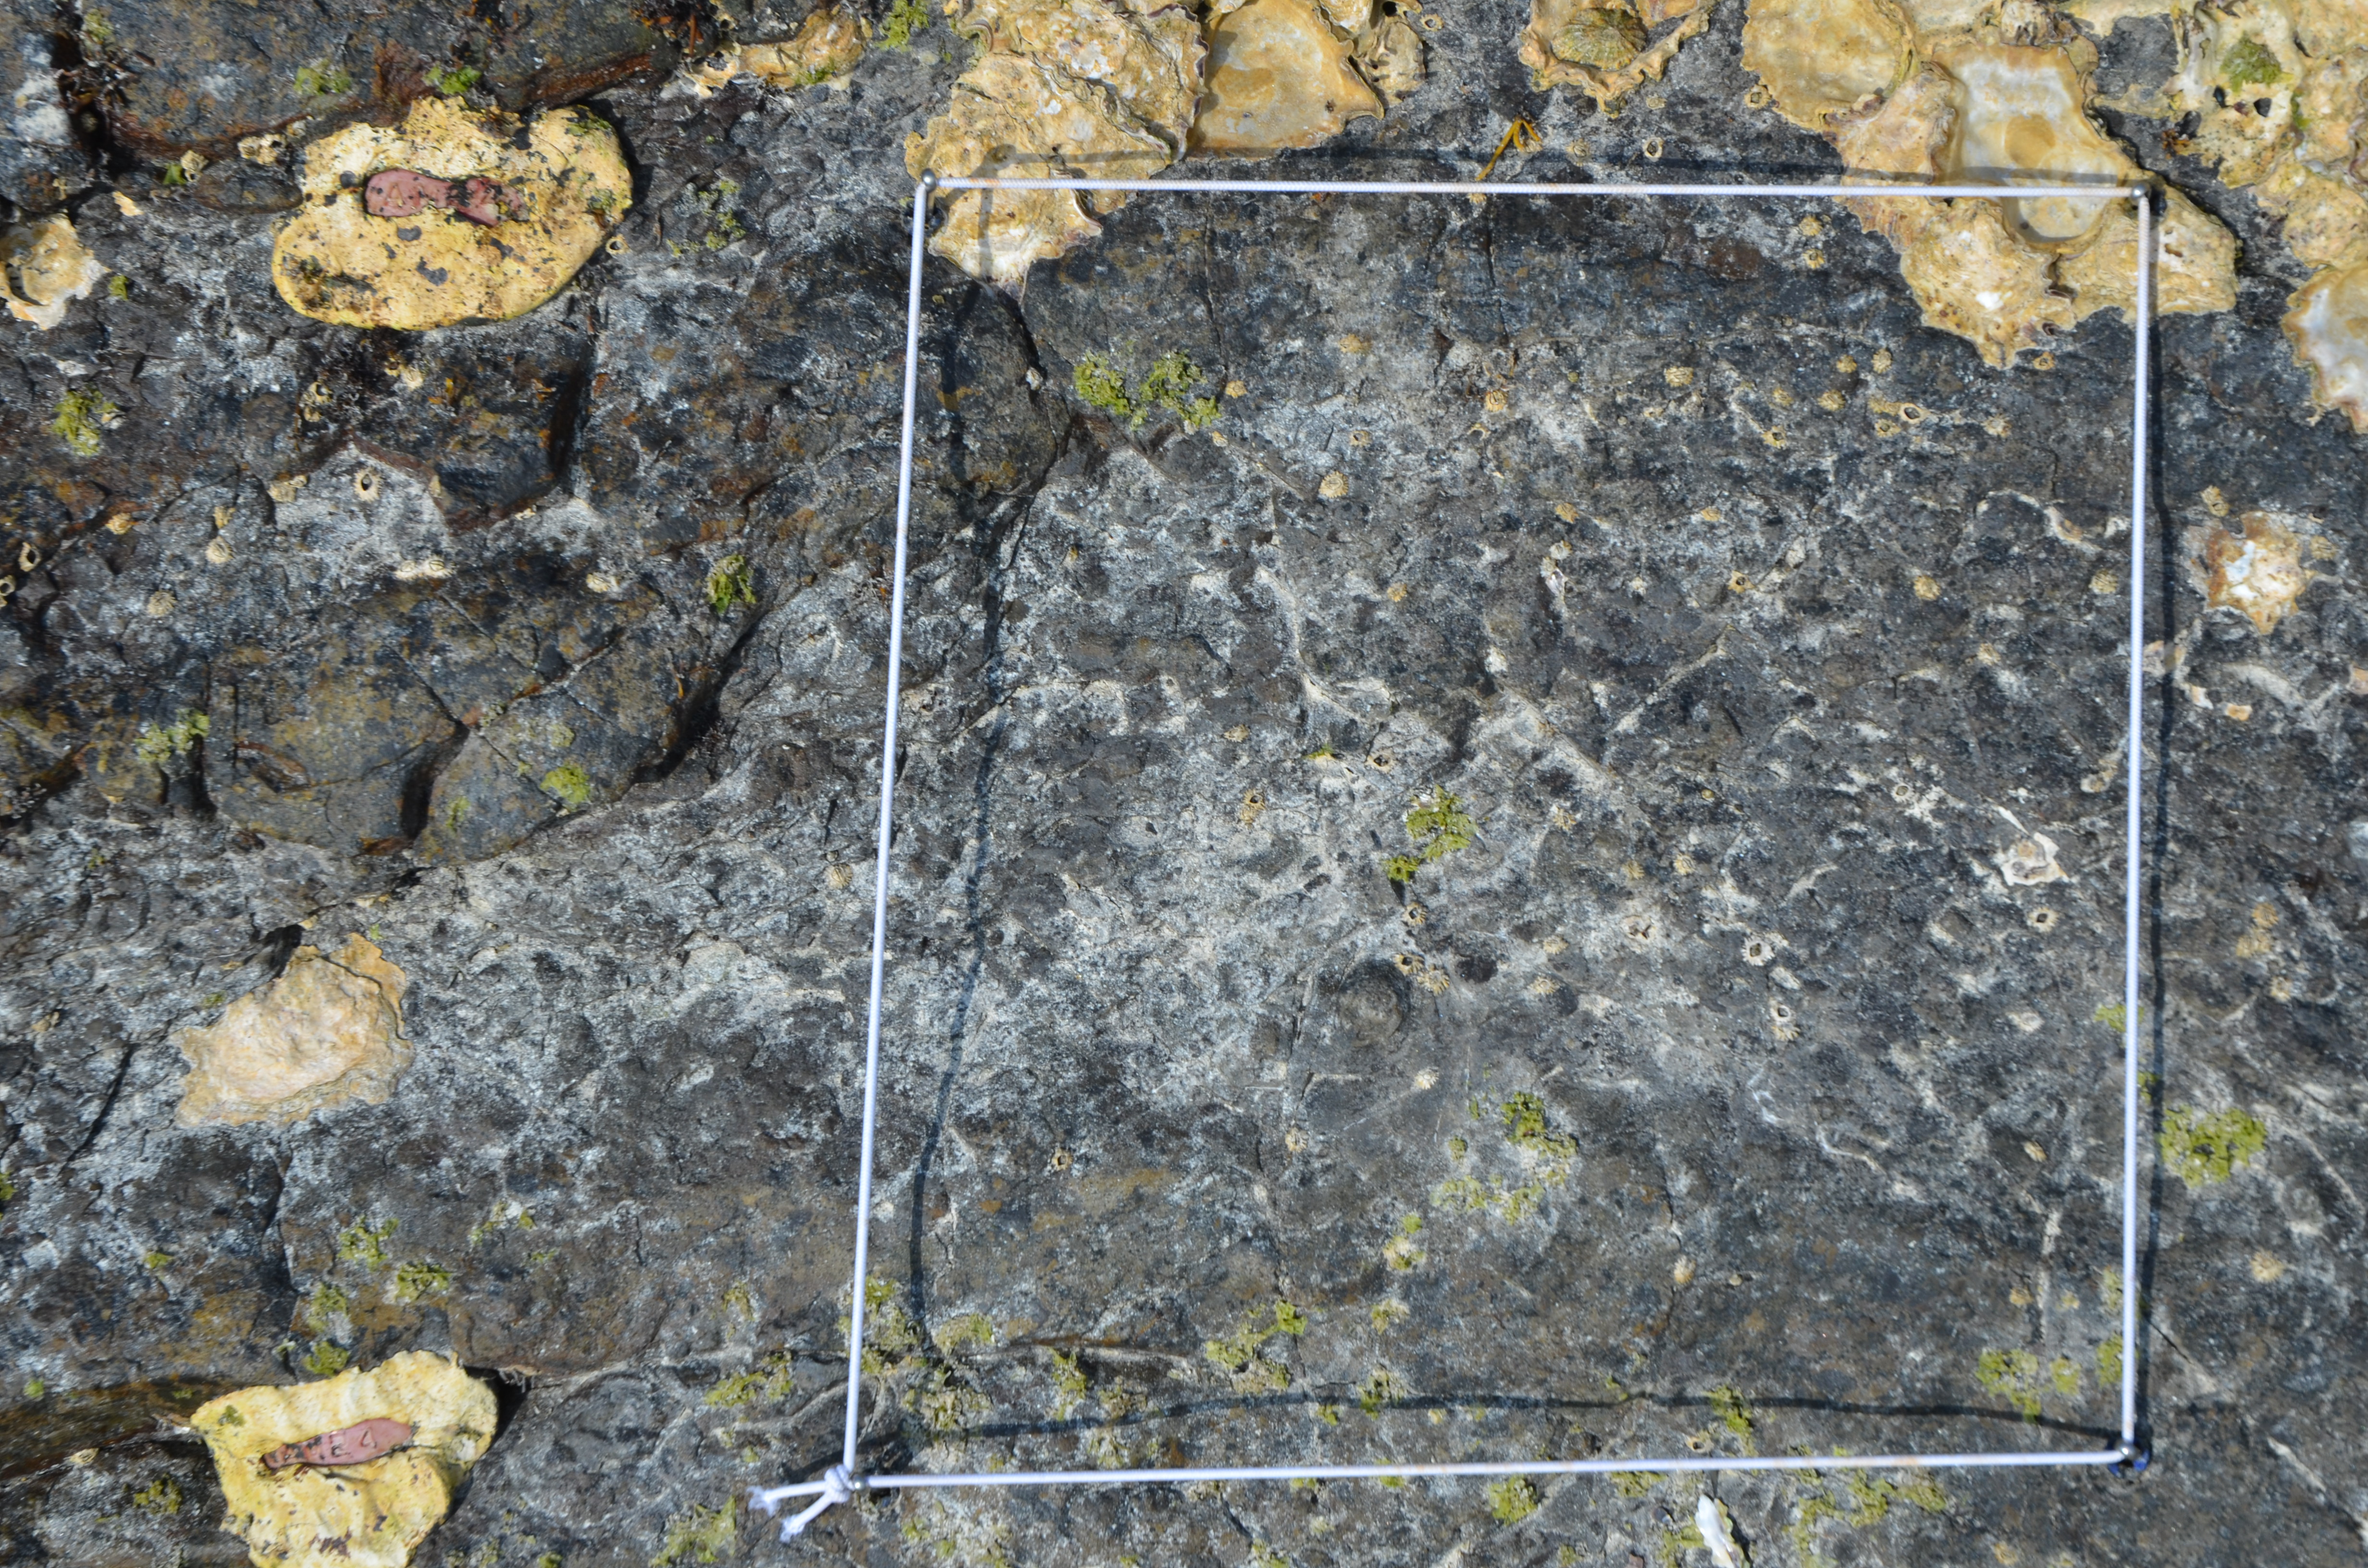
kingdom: Animalia
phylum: Arthropoda
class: Maxillopoda
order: Sessilia
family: Chthamalidae
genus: Chthamalus
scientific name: Chthamalus challengeri
